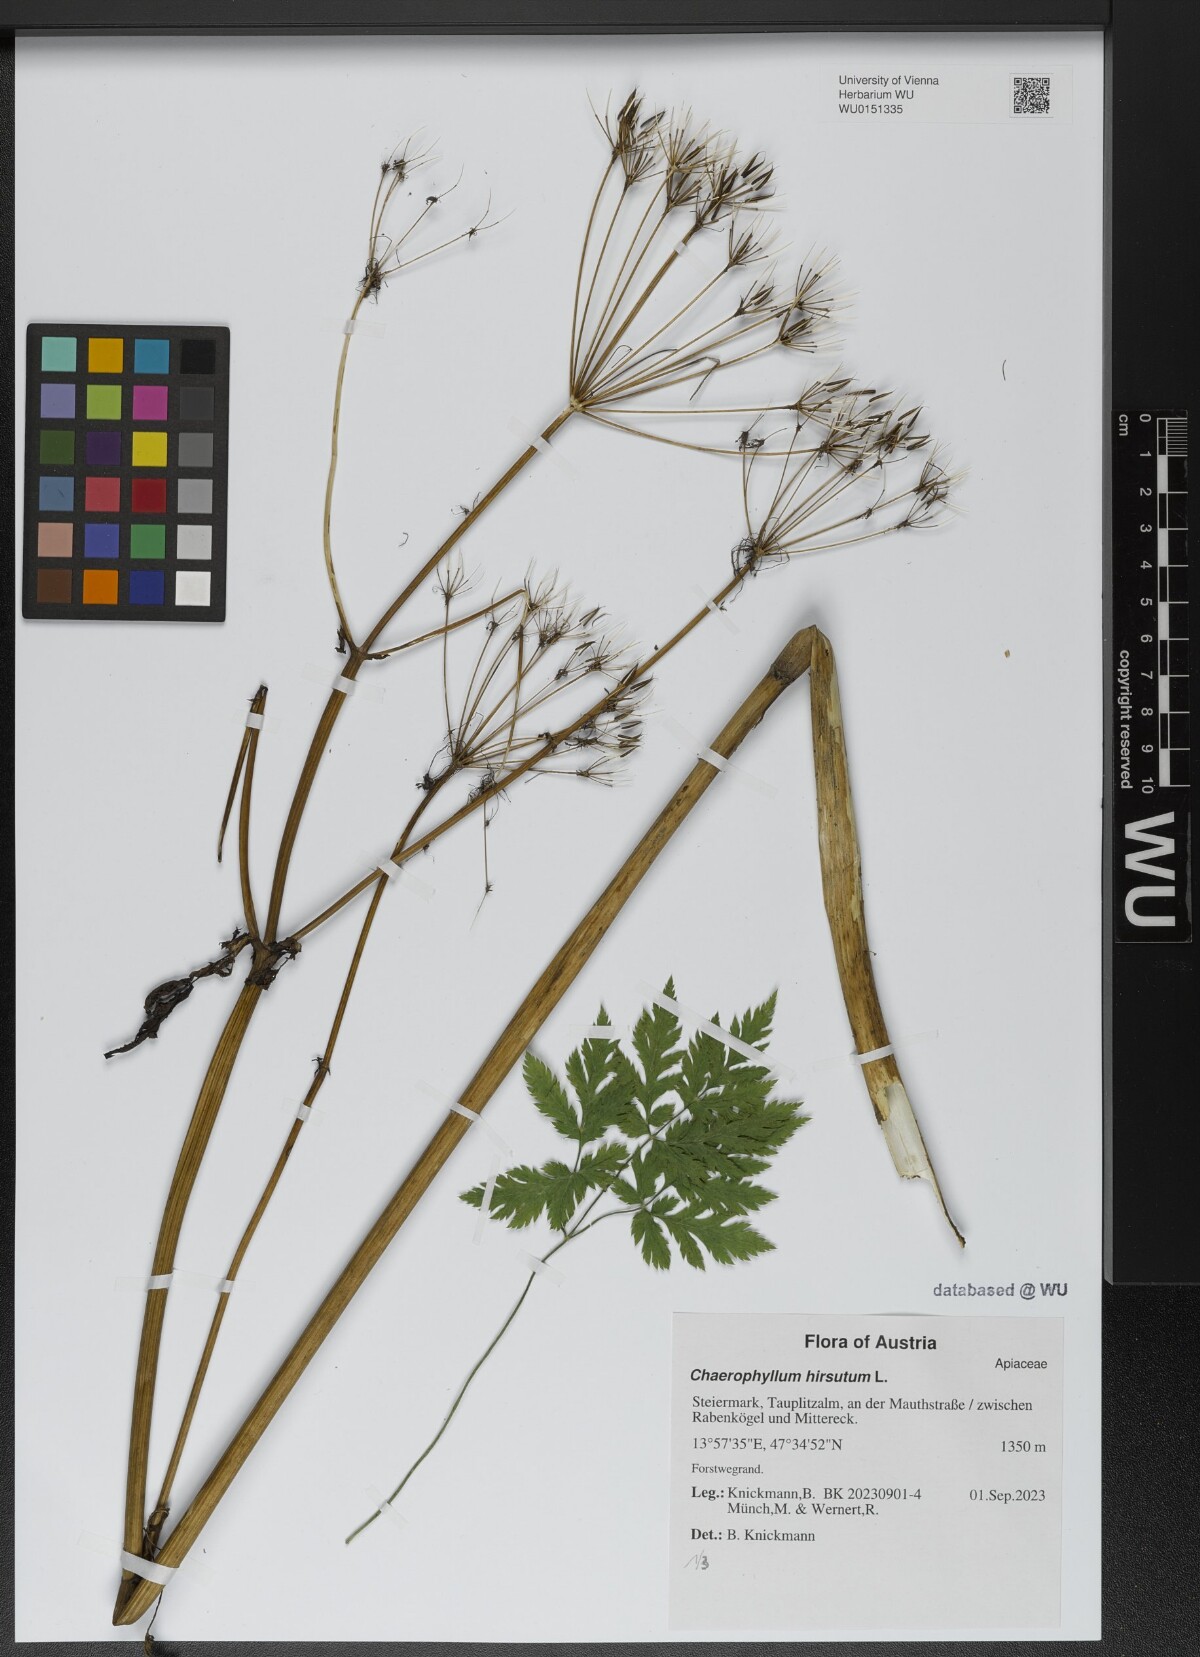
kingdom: Plantae
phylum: Tracheophyta
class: Magnoliopsida
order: Apiales
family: Apiaceae
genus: Chaerophyllum
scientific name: Chaerophyllum hirsutum
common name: Hairy chervil
